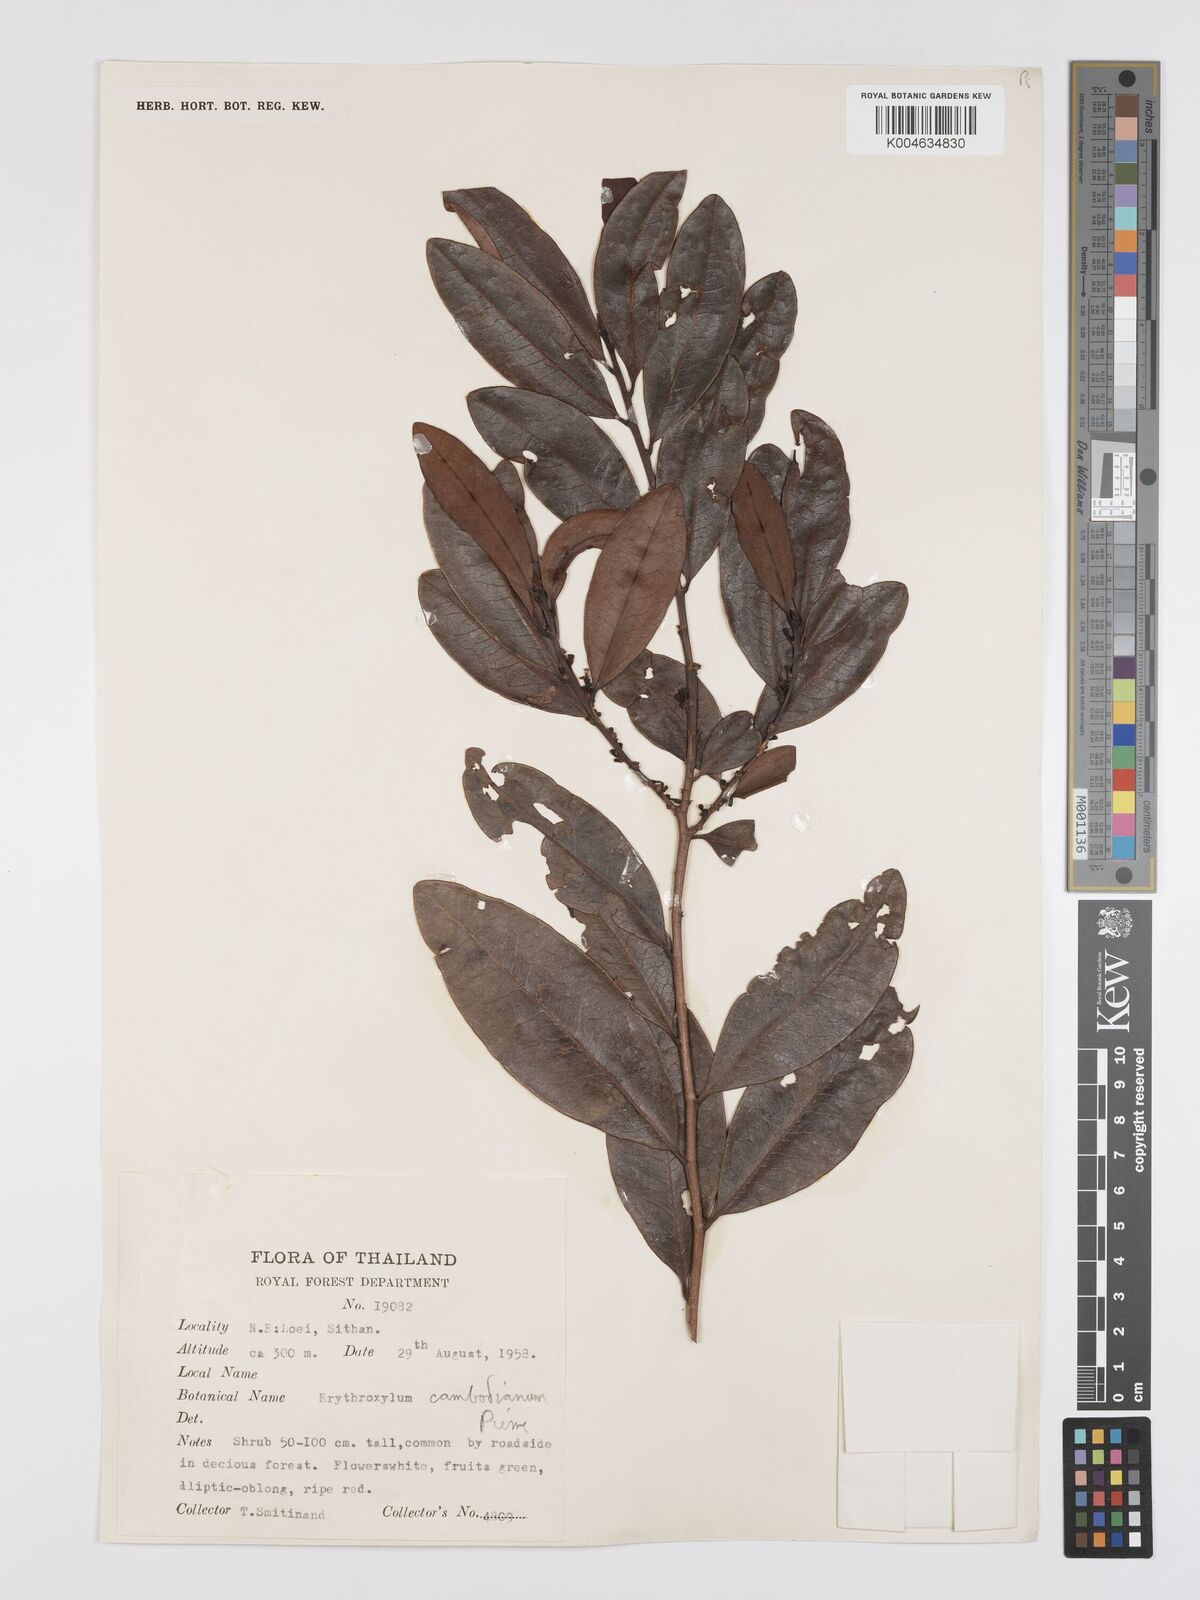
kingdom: Plantae
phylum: Tracheophyta
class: Magnoliopsida
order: Malpighiales
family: Erythroxylaceae
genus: Erythroxylum
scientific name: Erythroxylum cambodianum
